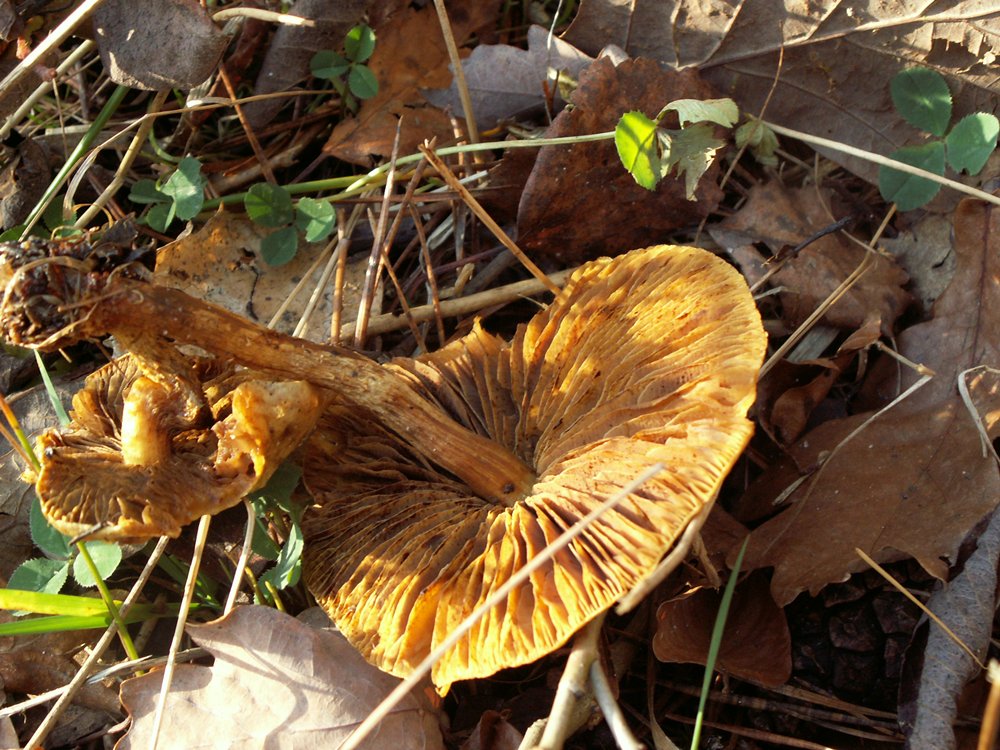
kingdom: Fungi
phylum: Basidiomycota
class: Agaricomycetes
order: Agaricales
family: Strophariaceae
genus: Pholiota
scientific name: Pholiota gummosa
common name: grøngul skælhat
